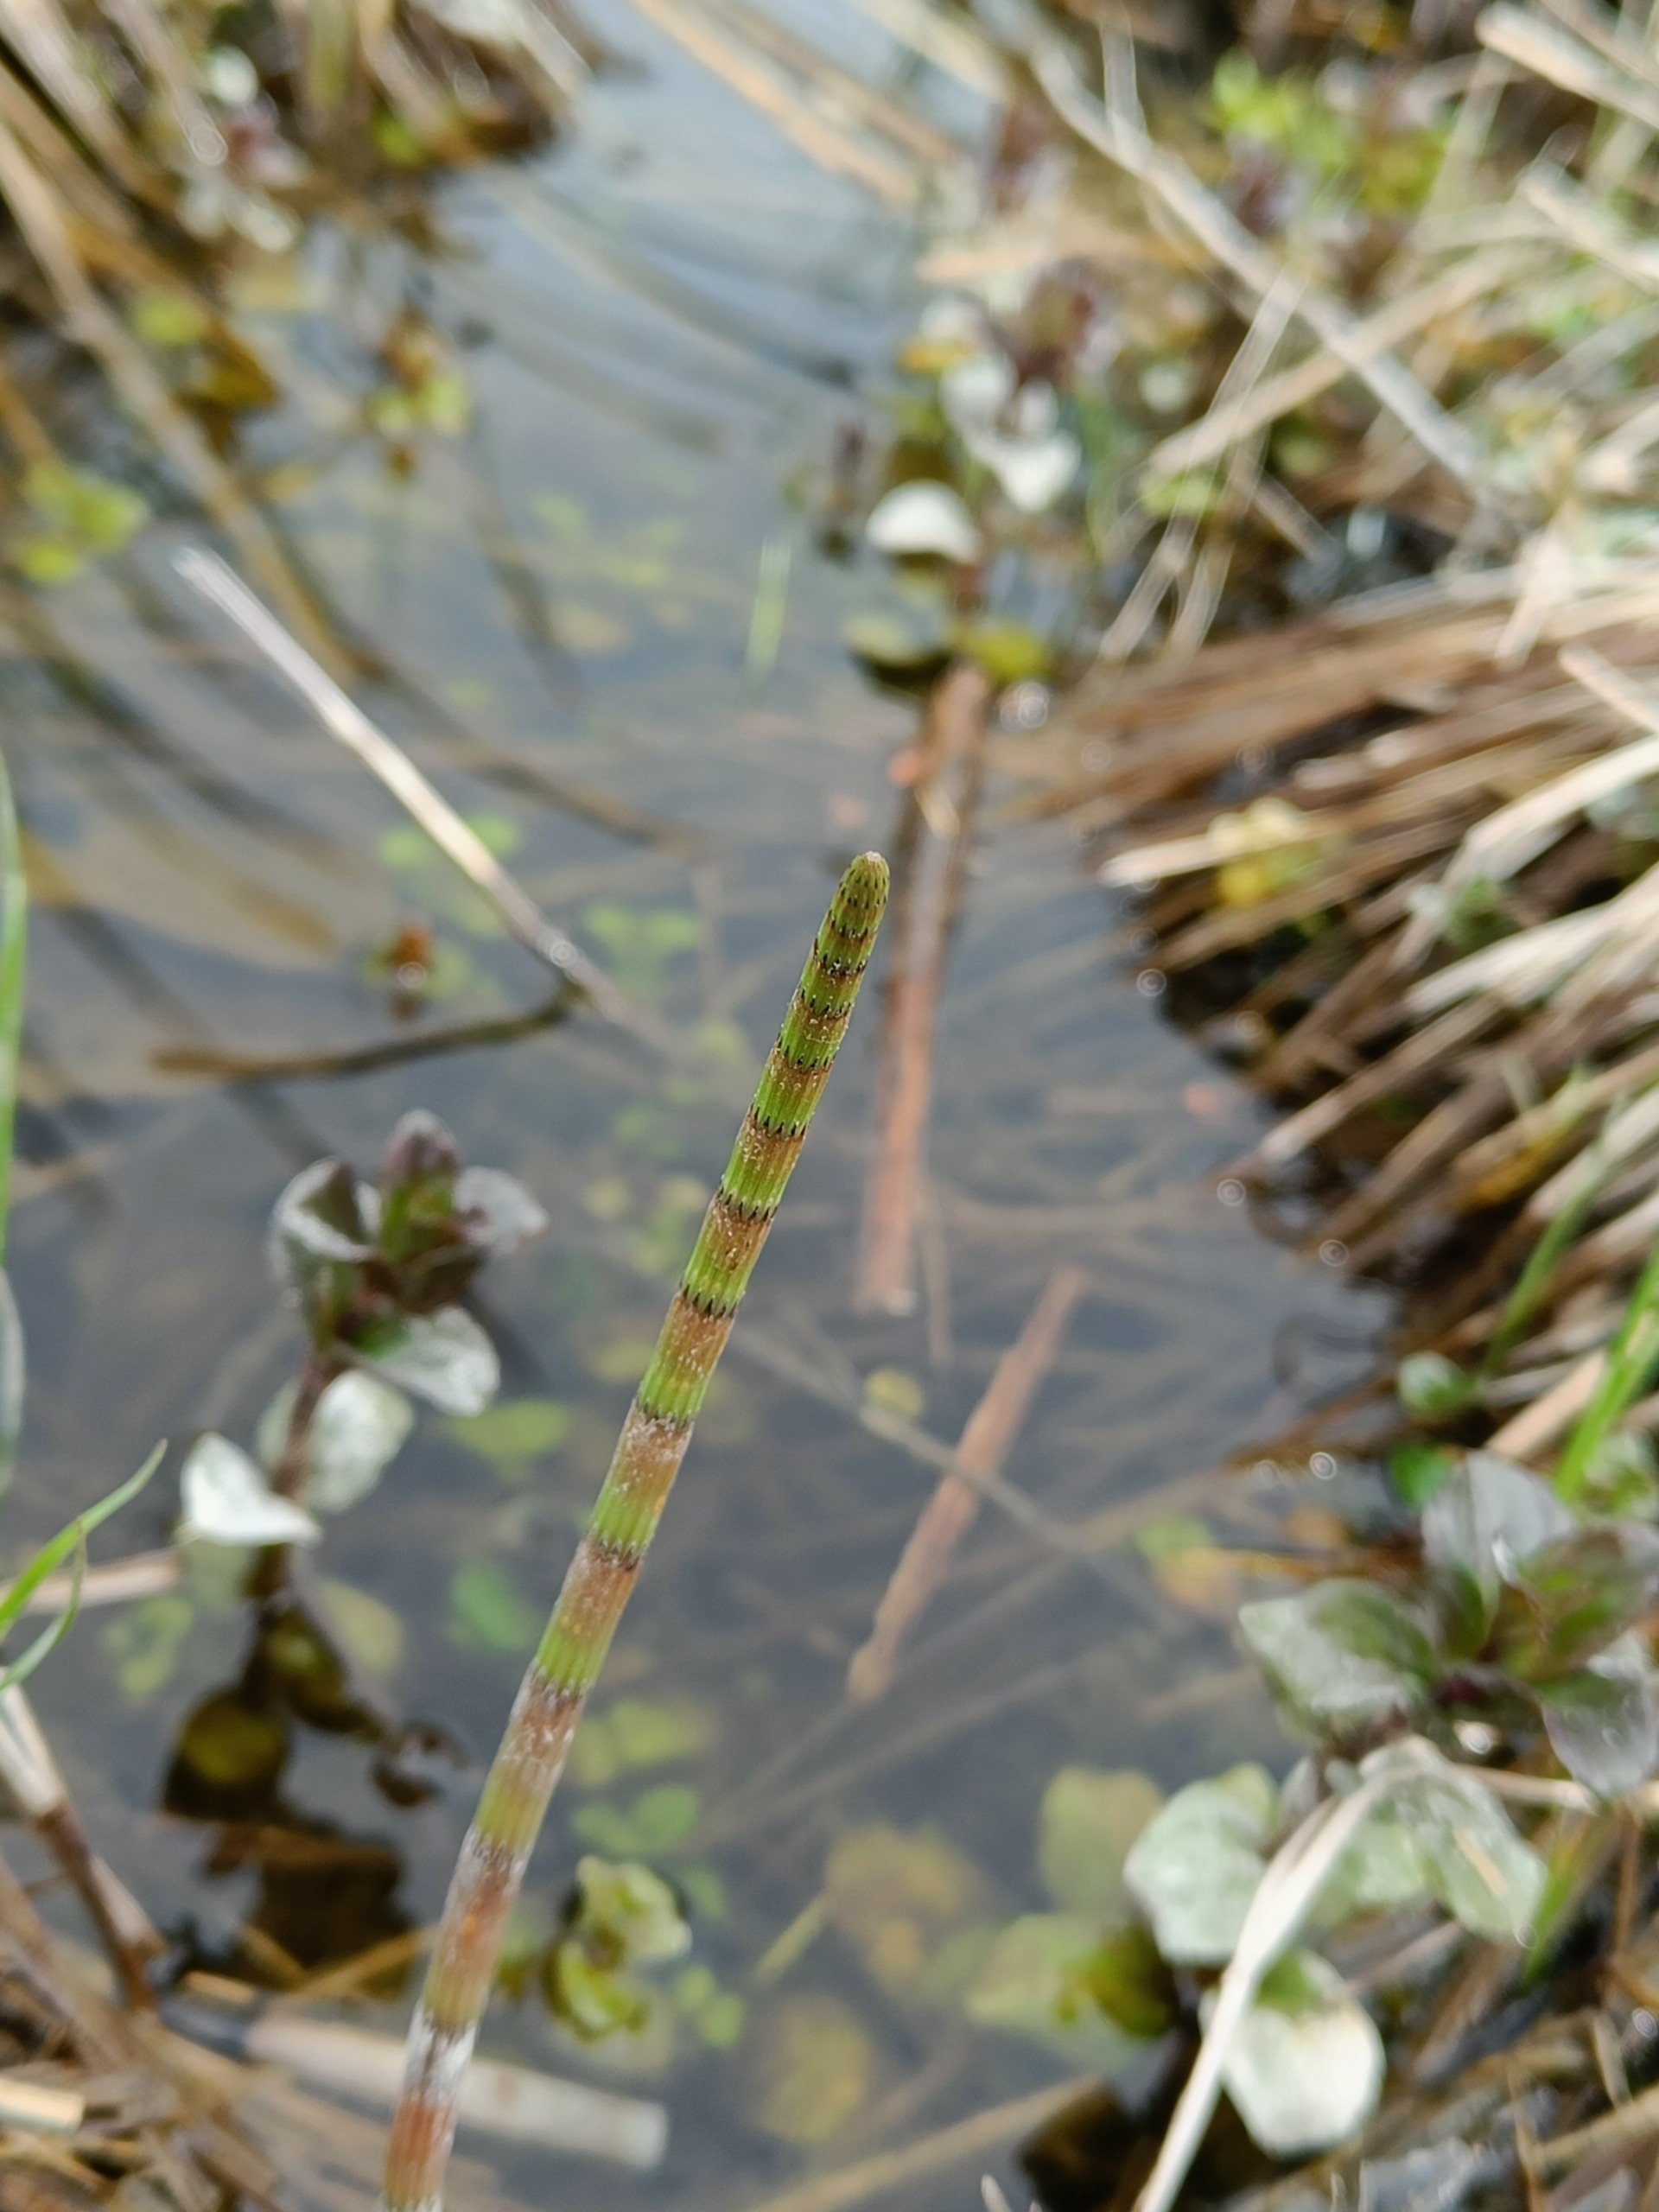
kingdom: Plantae
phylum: Tracheophyta
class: Polypodiopsida
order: Equisetales
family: Equisetaceae
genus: Equisetum
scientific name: Equisetum fluviatile
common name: Dynd-padderok
